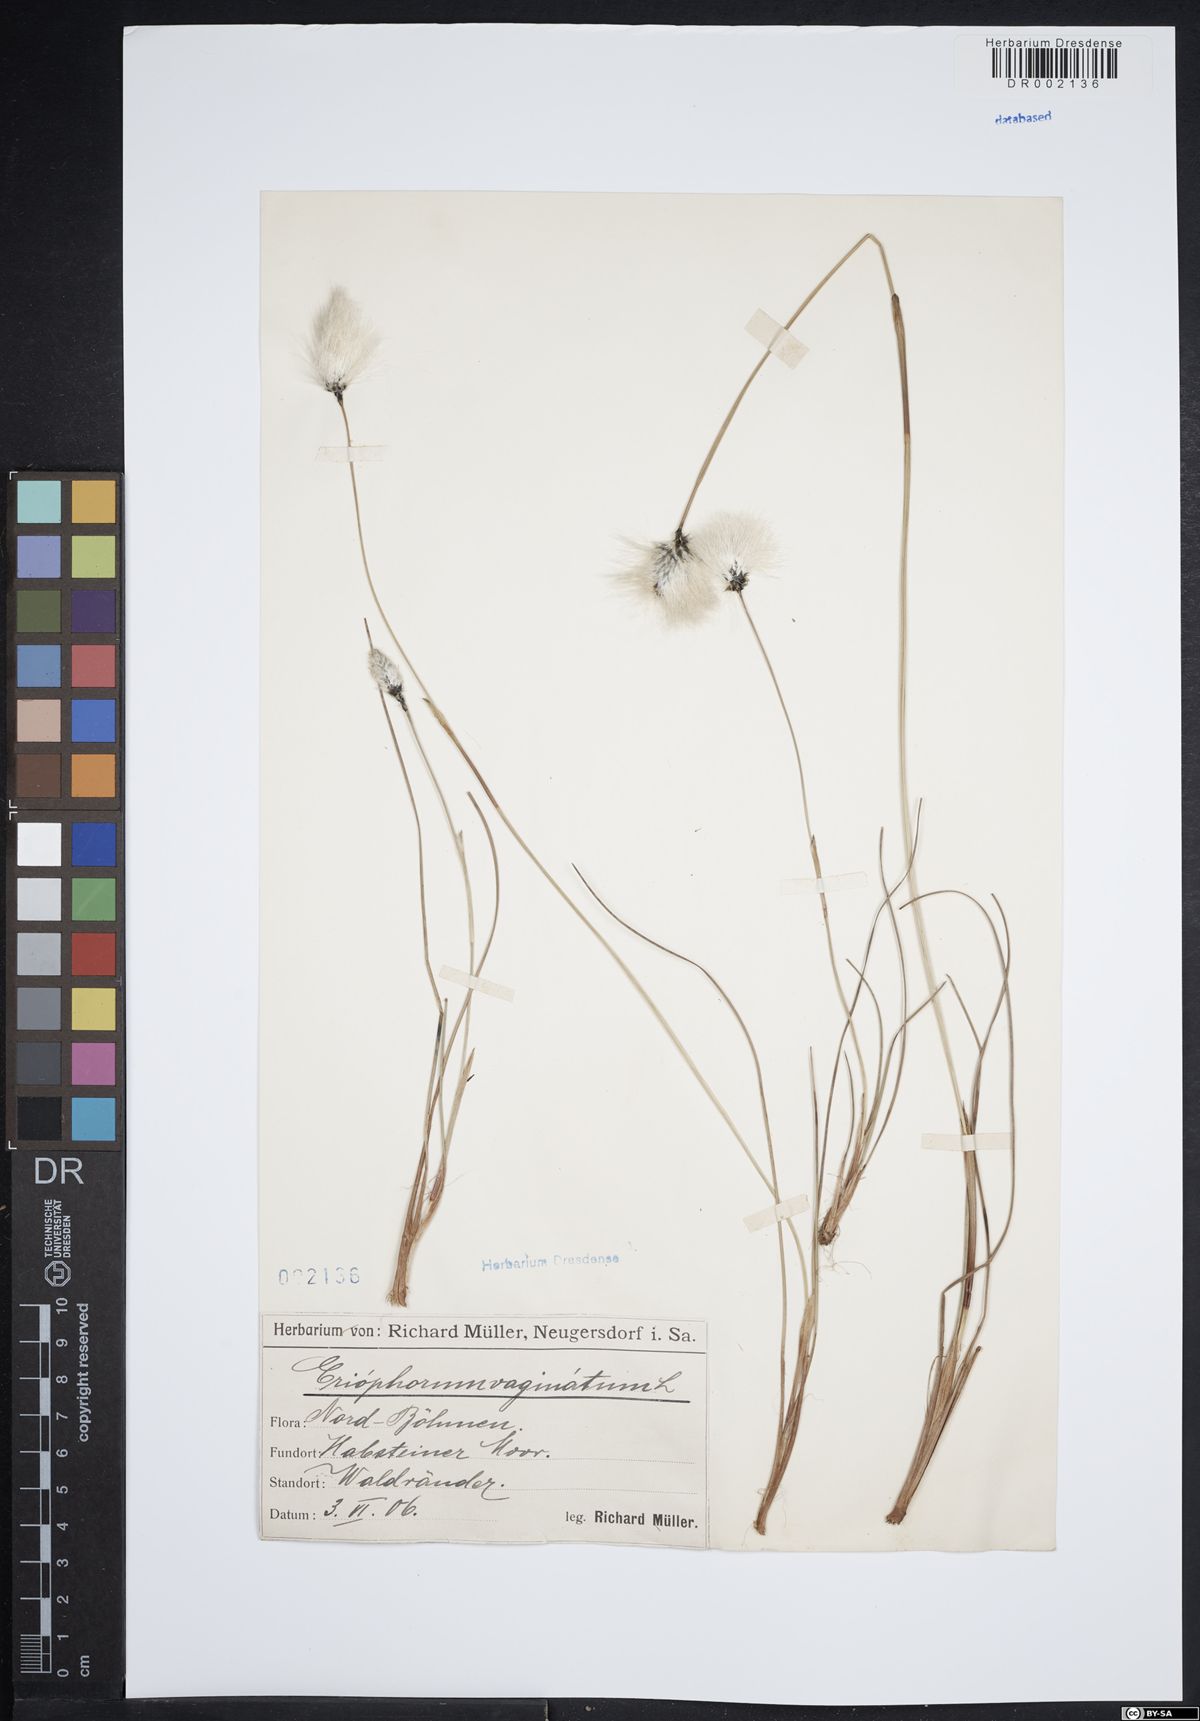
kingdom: Plantae
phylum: Tracheophyta
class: Liliopsida
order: Poales
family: Cyperaceae
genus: Eriophorum
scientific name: Eriophorum vaginatum
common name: Hare's-tail cottongrass
